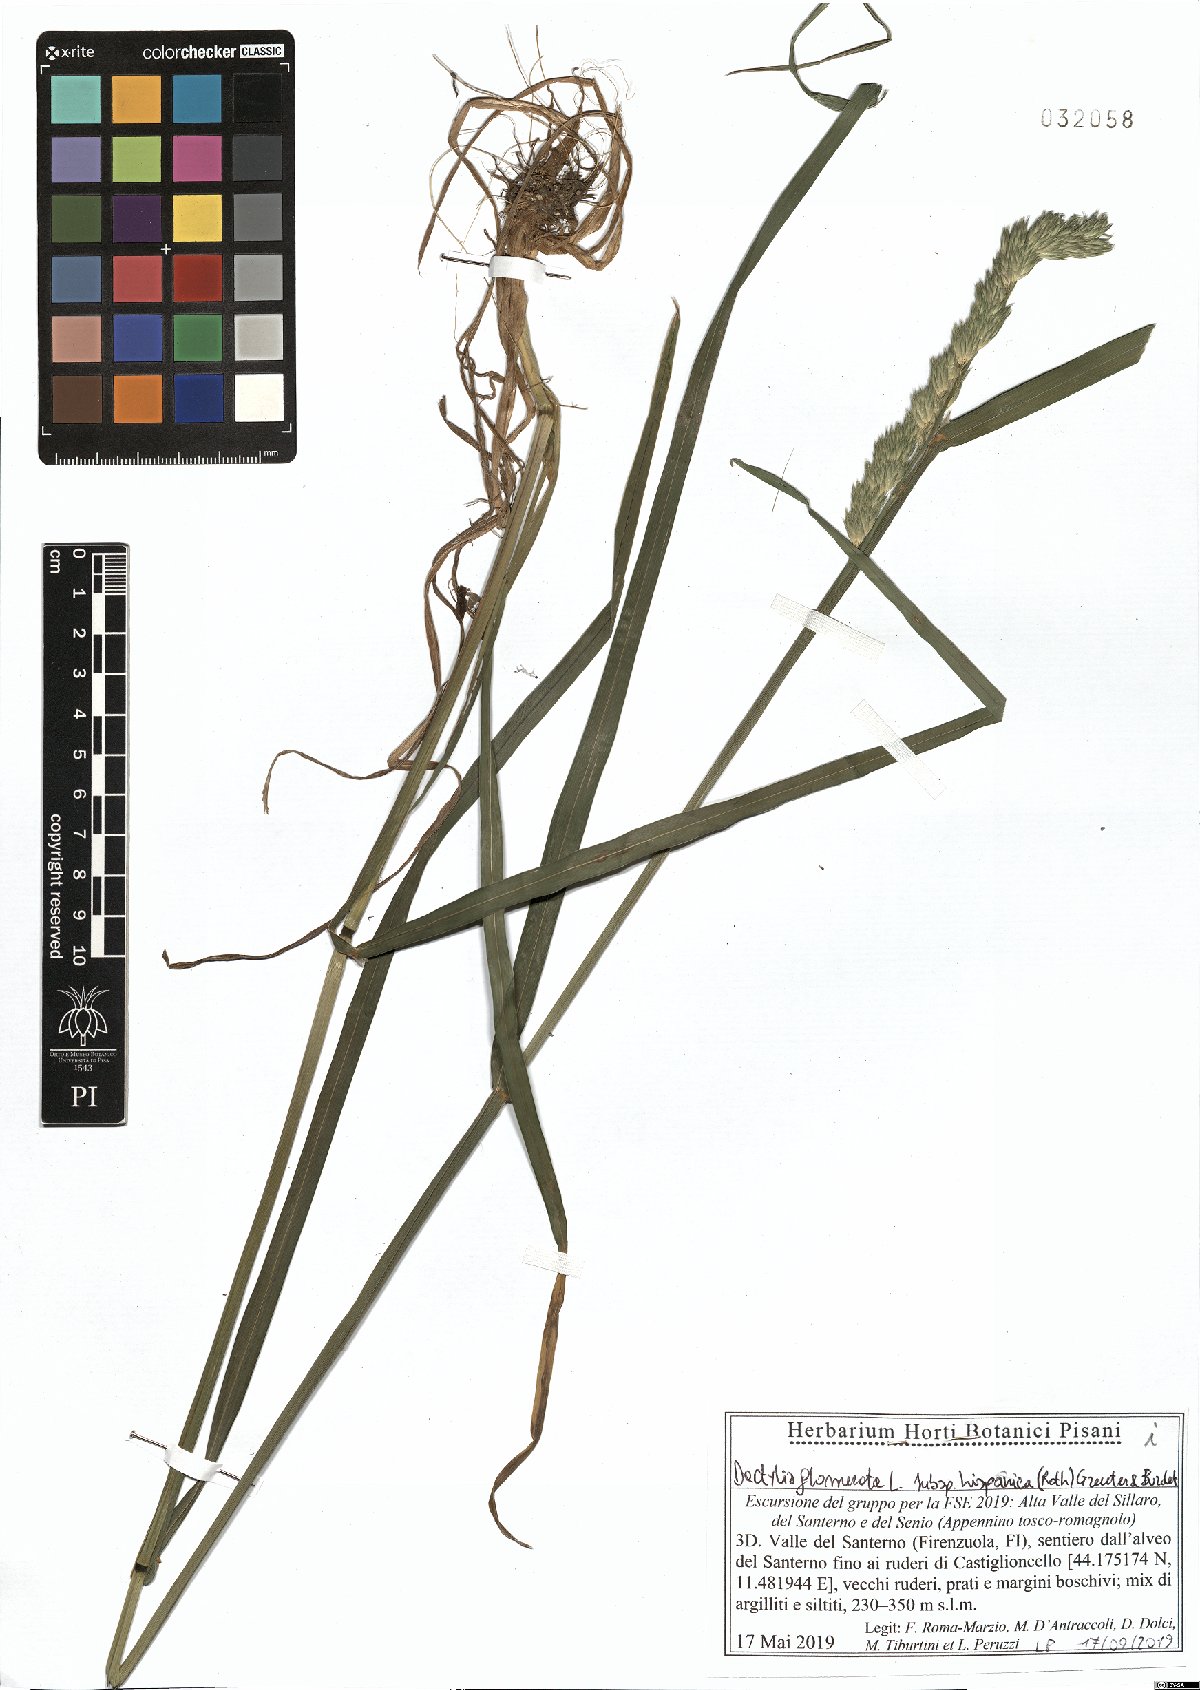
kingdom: Plantae
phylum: Tracheophyta
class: Liliopsida
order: Poales
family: Poaceae
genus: Dactylis
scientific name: Dactylis glomerata
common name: Orchardgrass
